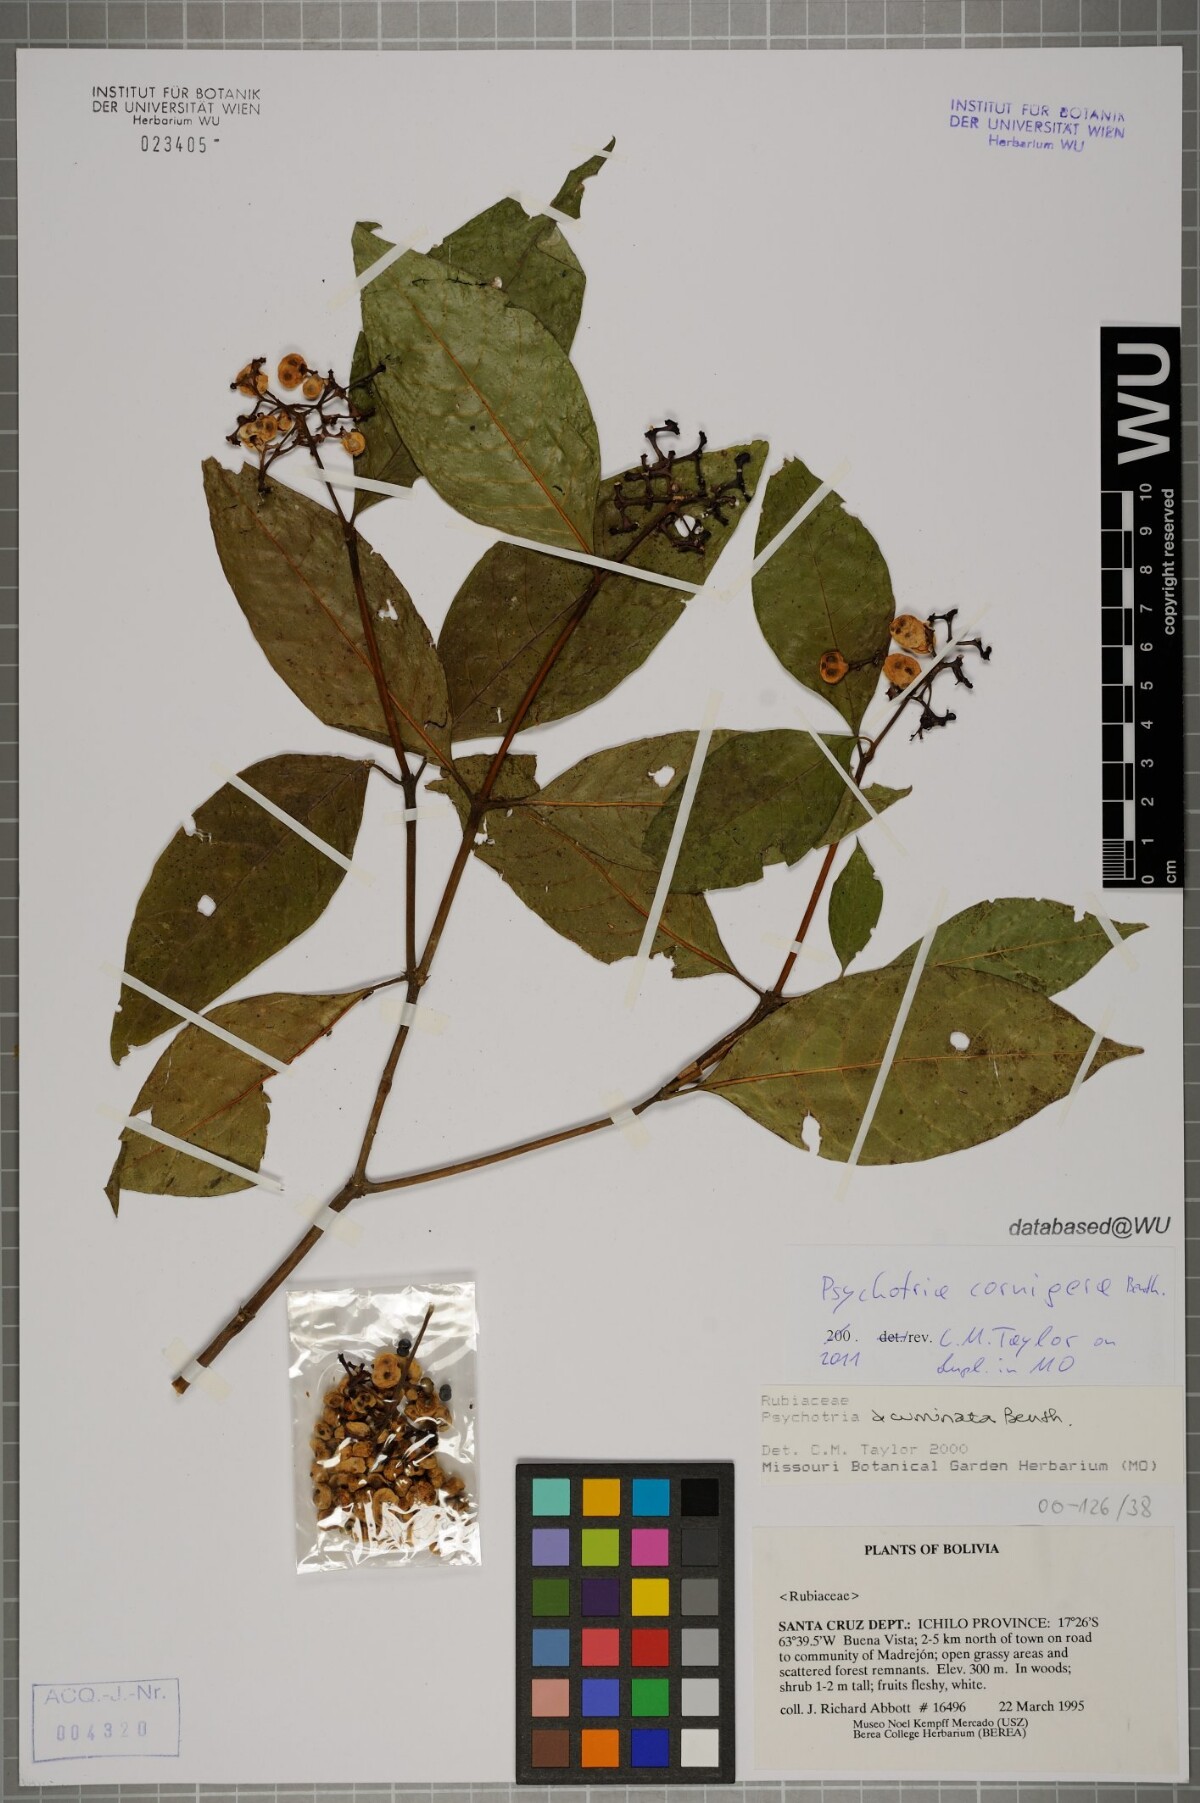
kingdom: Plantae
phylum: Tracheophyta
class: Magnoliopsida
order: Gentianales
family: Rubiaceae
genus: Palicourea
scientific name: Palicourea subcuspidata
